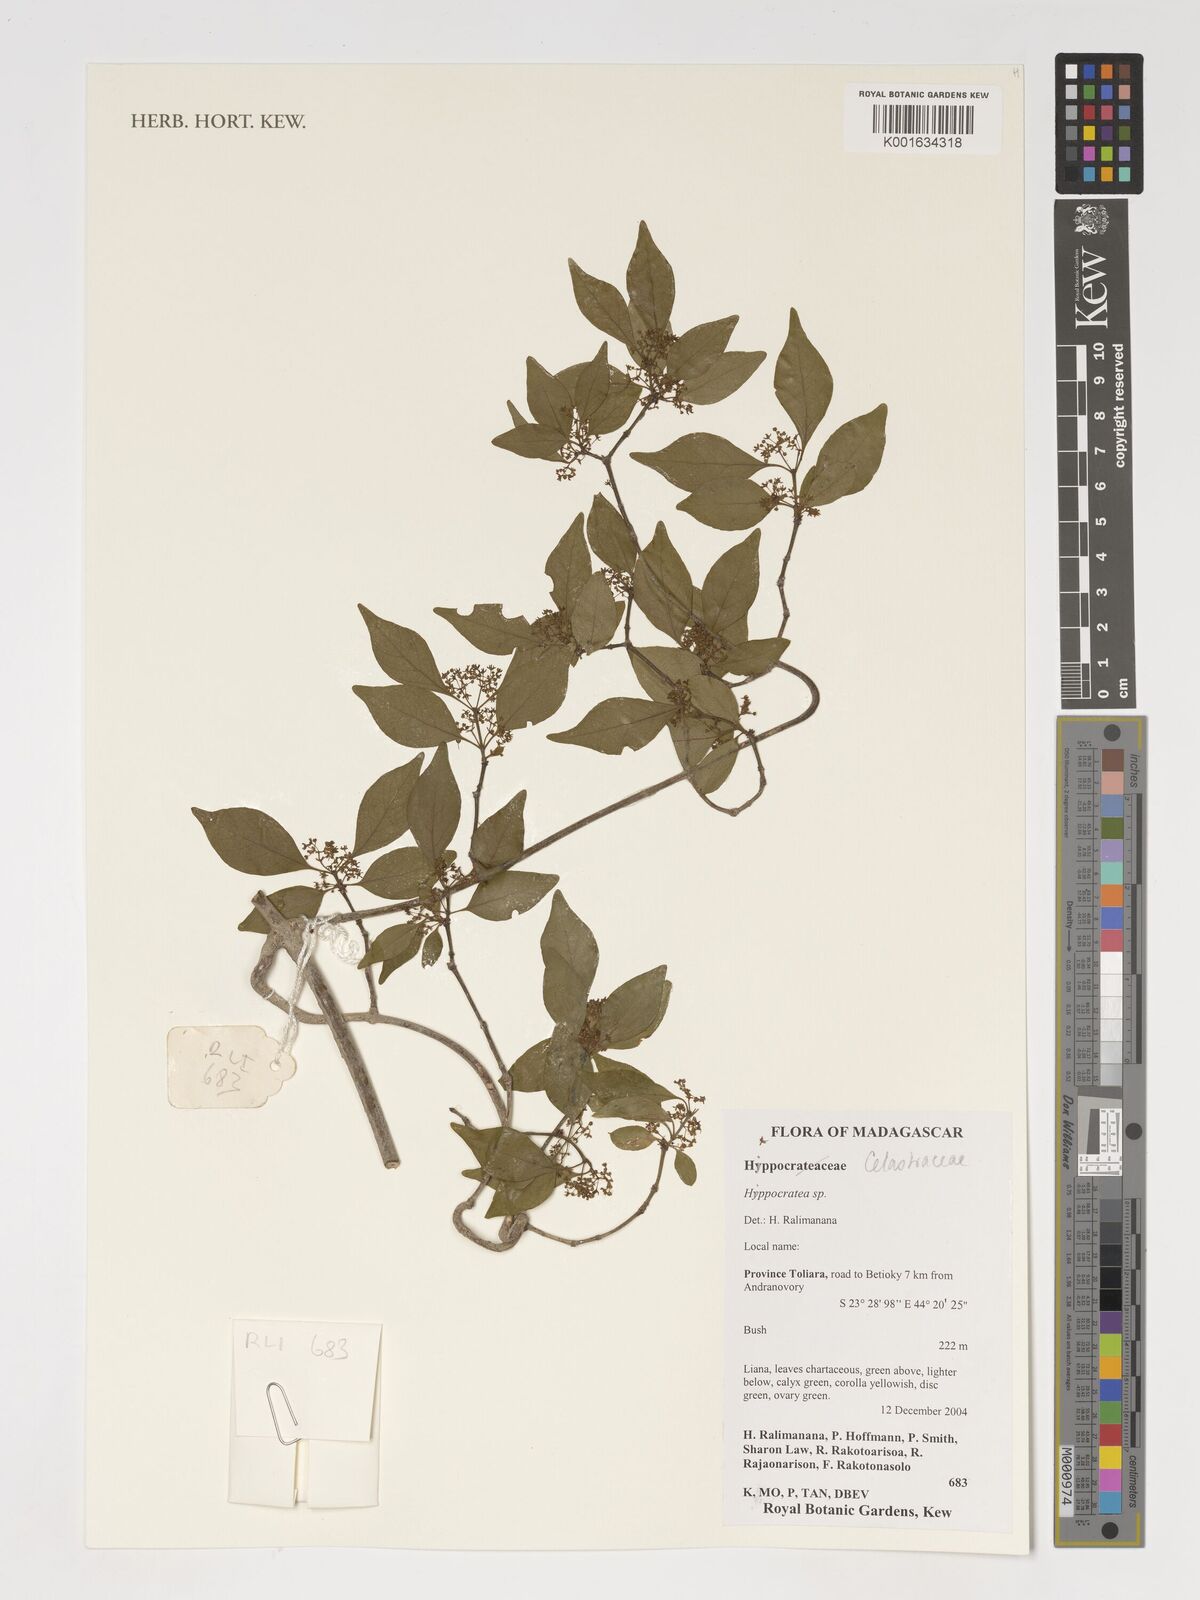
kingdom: Plantae
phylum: Tracheophyta
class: Magnoliopsida
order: Celastrales
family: Celastraceae
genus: Hippocratea
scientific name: Hippocratea
